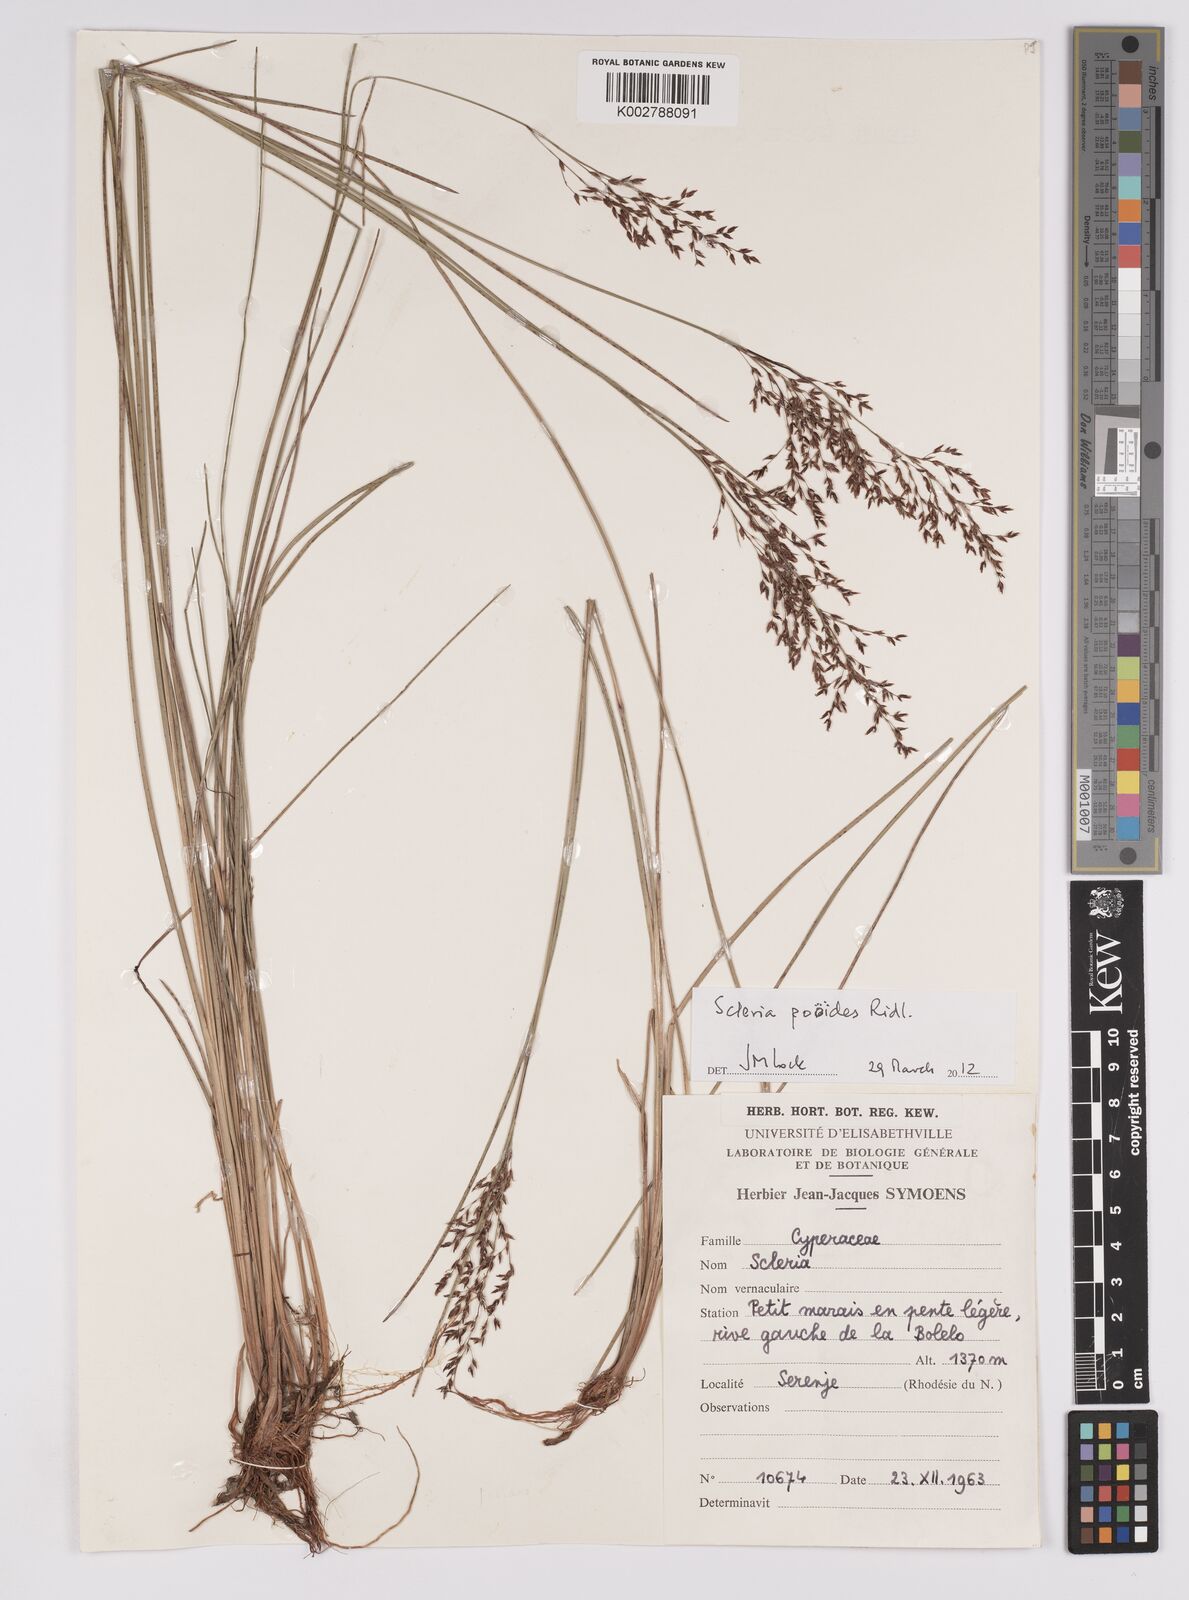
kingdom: Plantae
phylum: Tracheophyta
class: Liliopsida
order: Poales
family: Cyperaceae
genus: Scleria
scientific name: Scleria pooides
